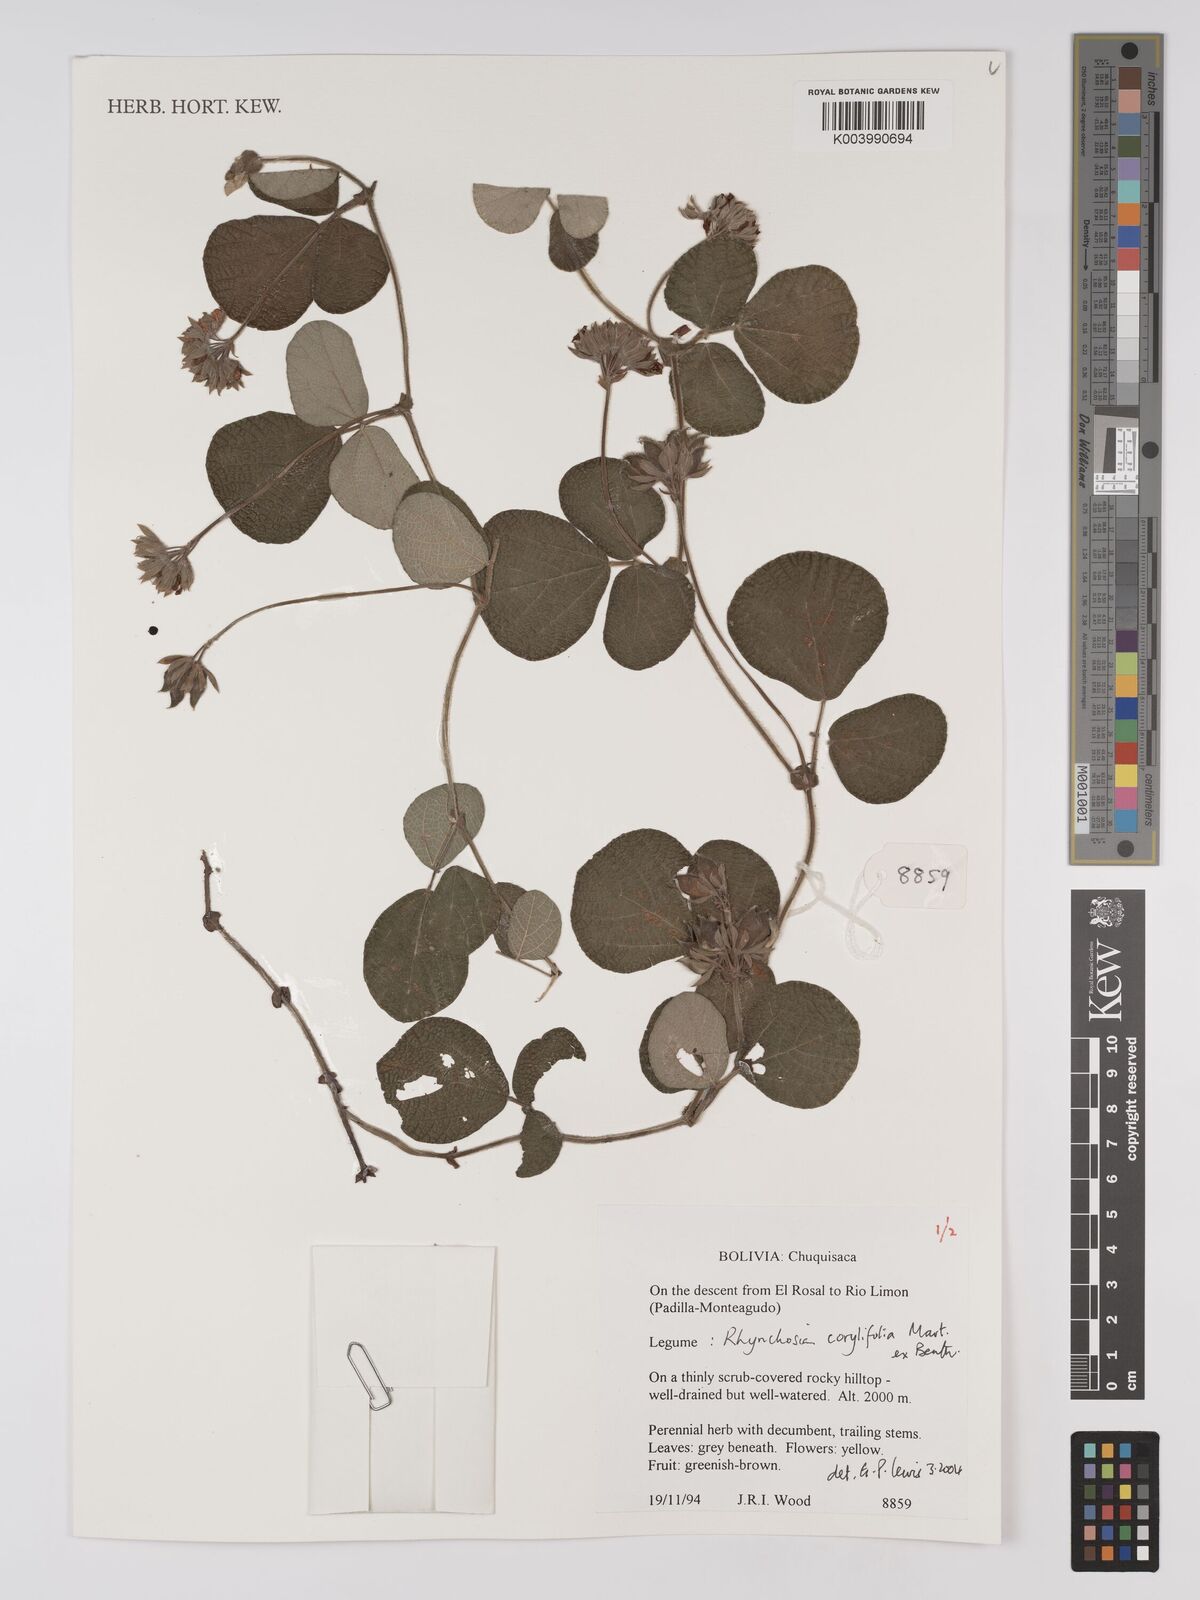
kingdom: Plantae
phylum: Tracheophyta
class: Magnoliopsida
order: Fabales
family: Fabaceae
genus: Rhynchosia
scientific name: Rhynchosia corylifolia
